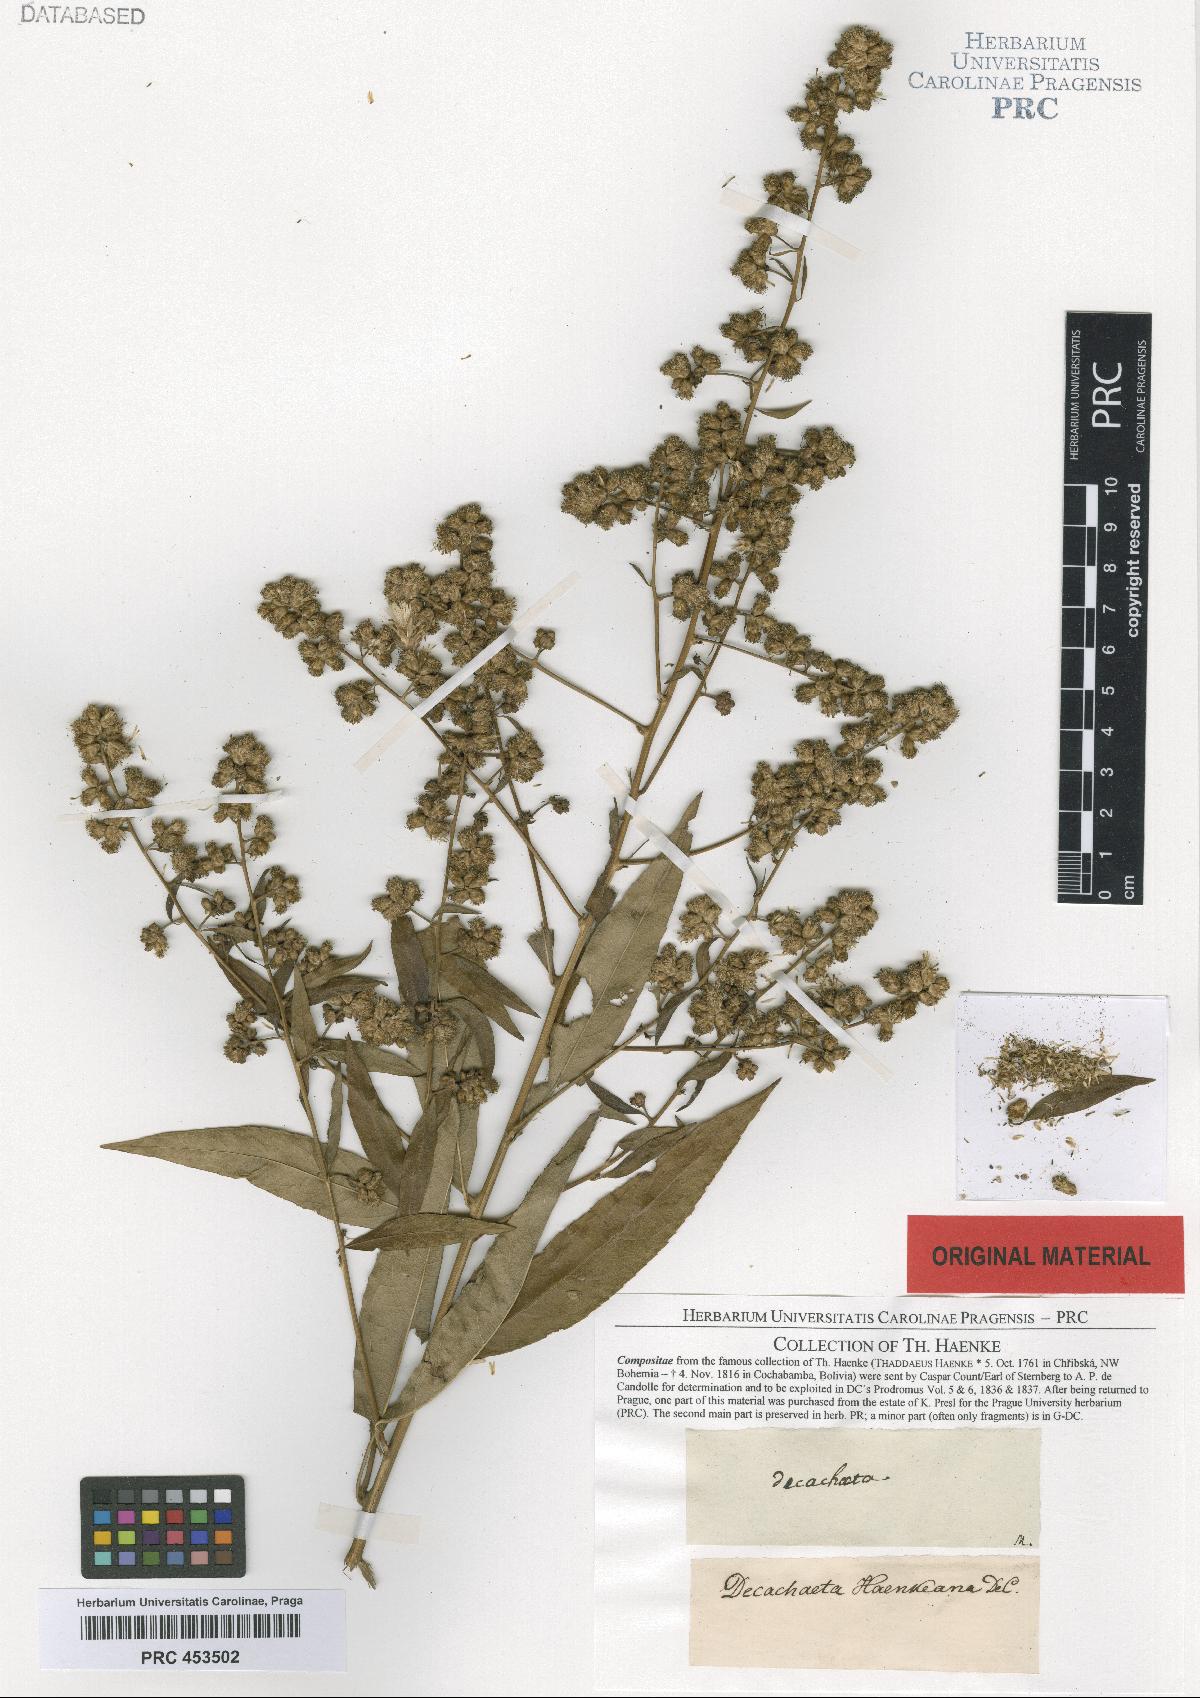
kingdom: Plantae
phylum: Tracheophyta
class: Magnoliopsida
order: Asterales
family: Asteraceae
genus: Decachaeta
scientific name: Decachaeta haenkeana
